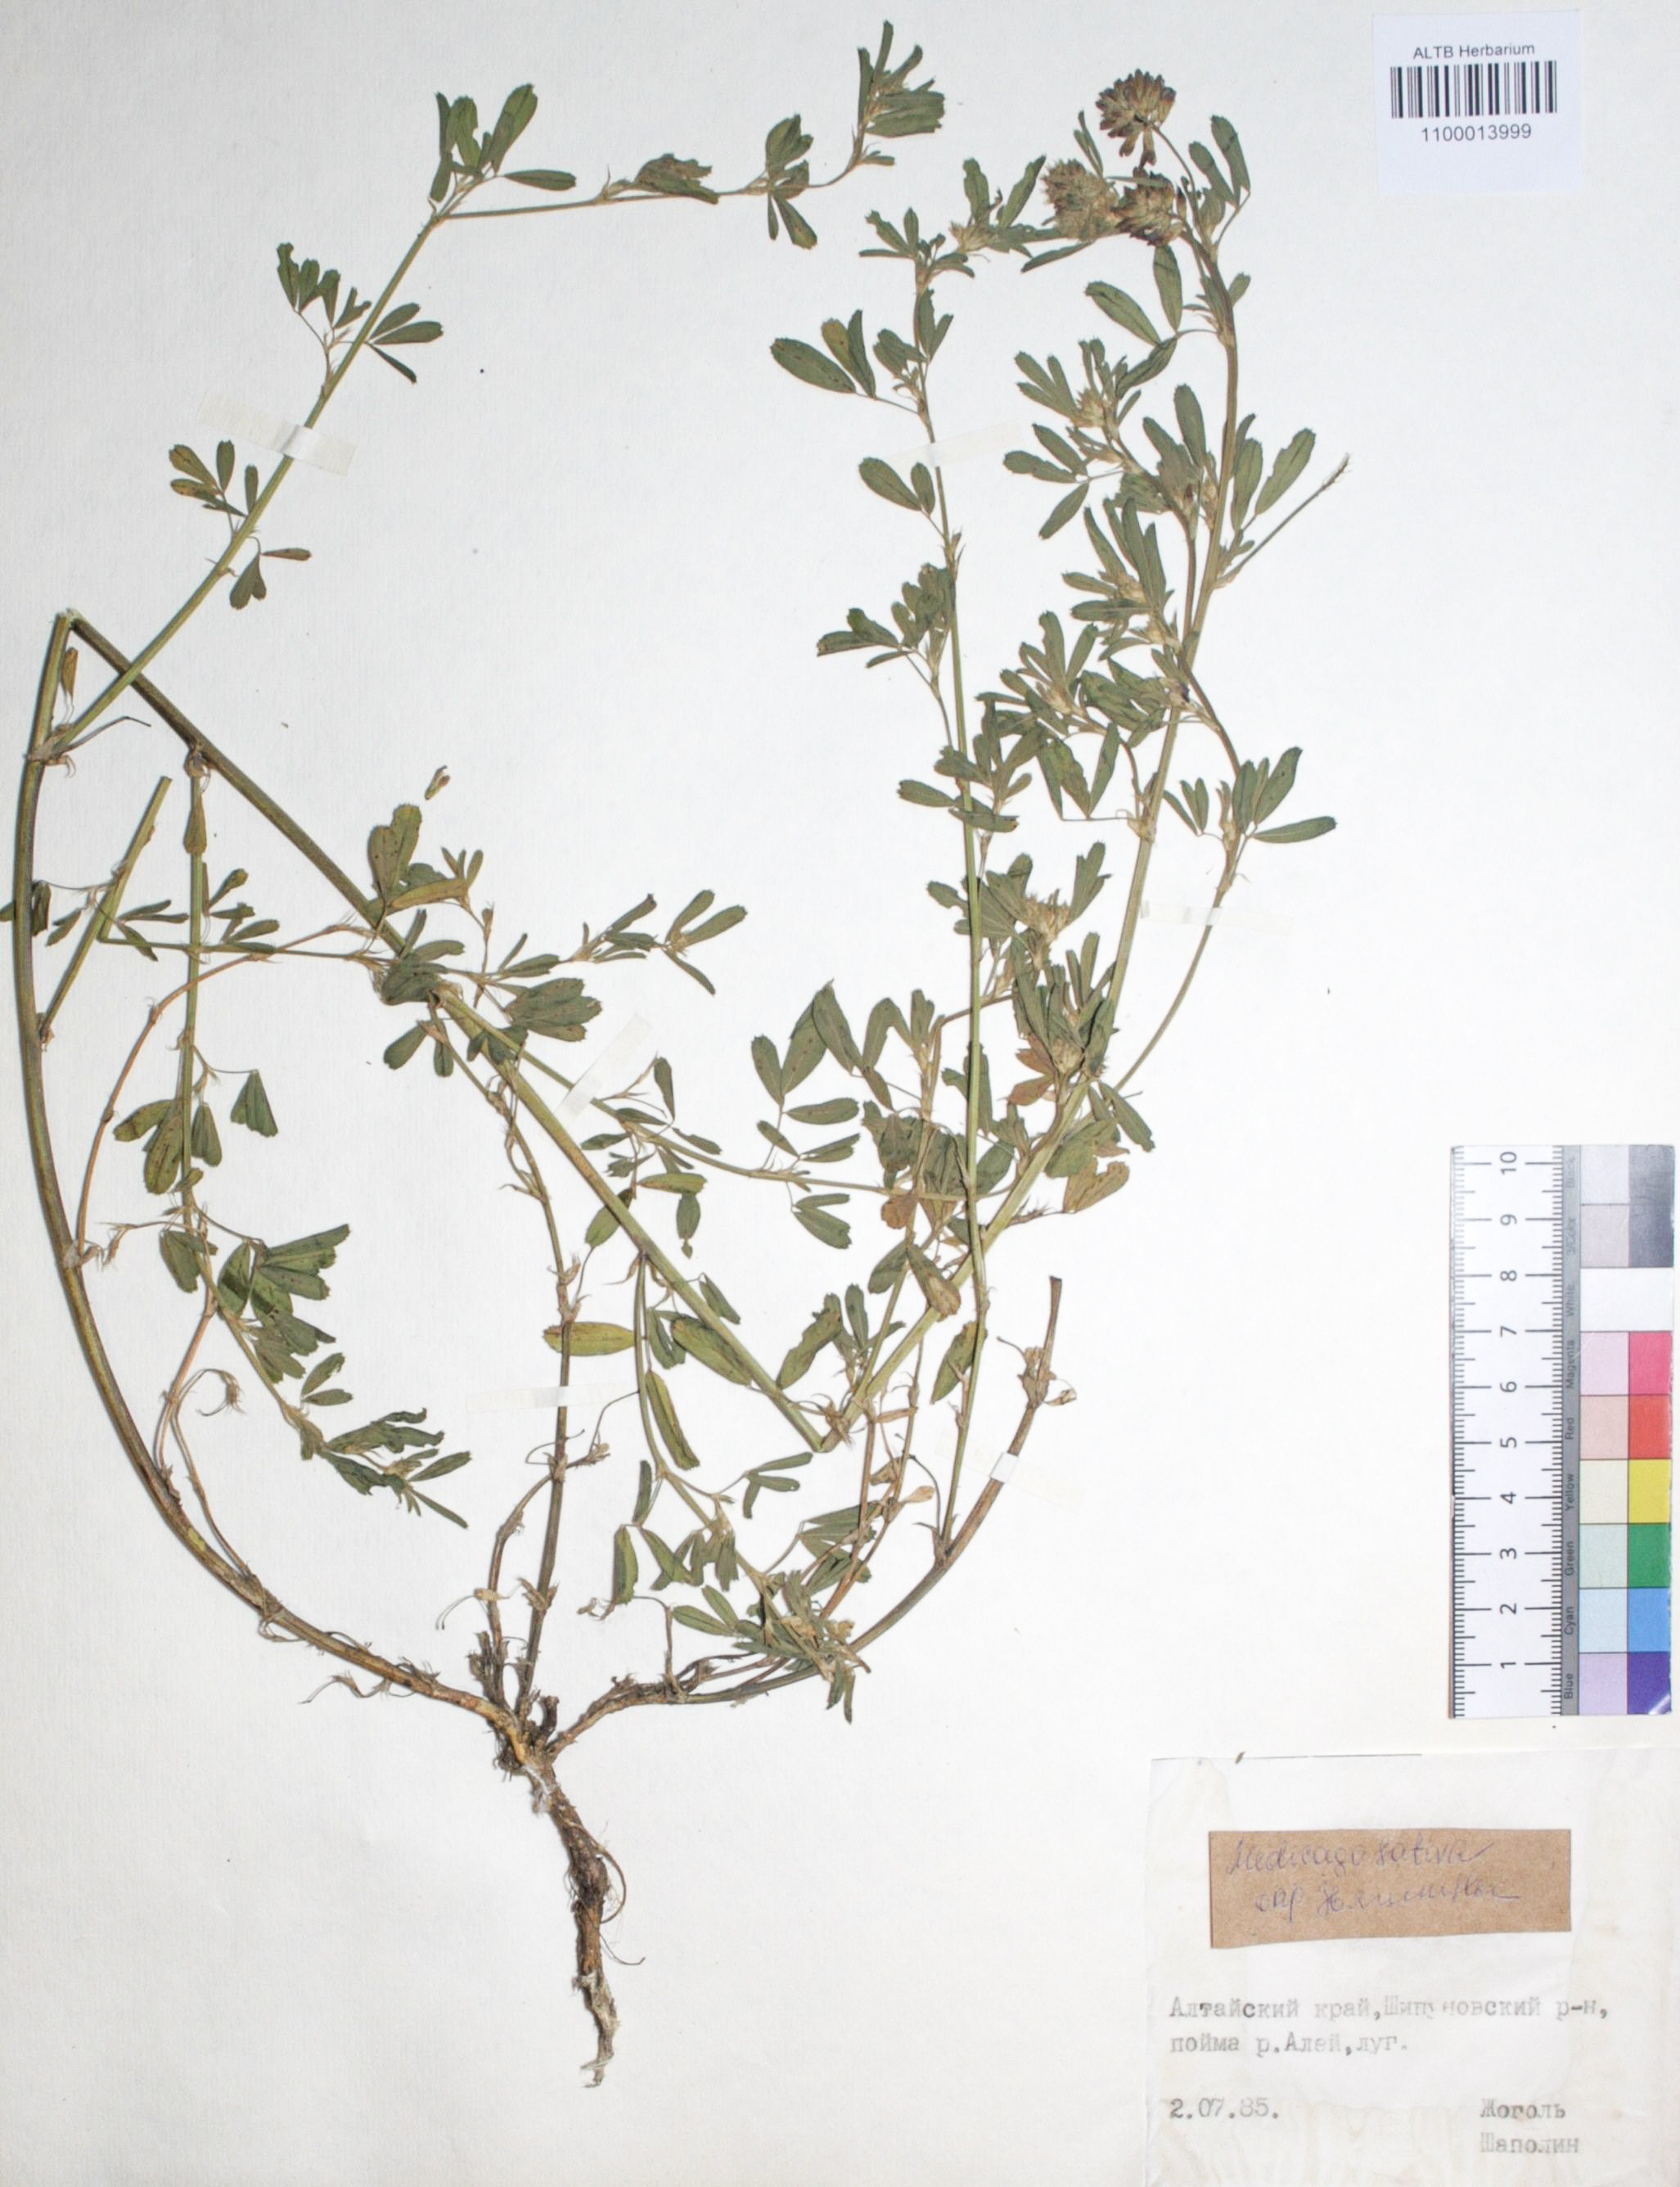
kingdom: Plantae
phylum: Tracheophyta
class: Magnoliopsida
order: Fabales
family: Fabaceae
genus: Medicago
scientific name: Medicago sativa
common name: Alfalfa
